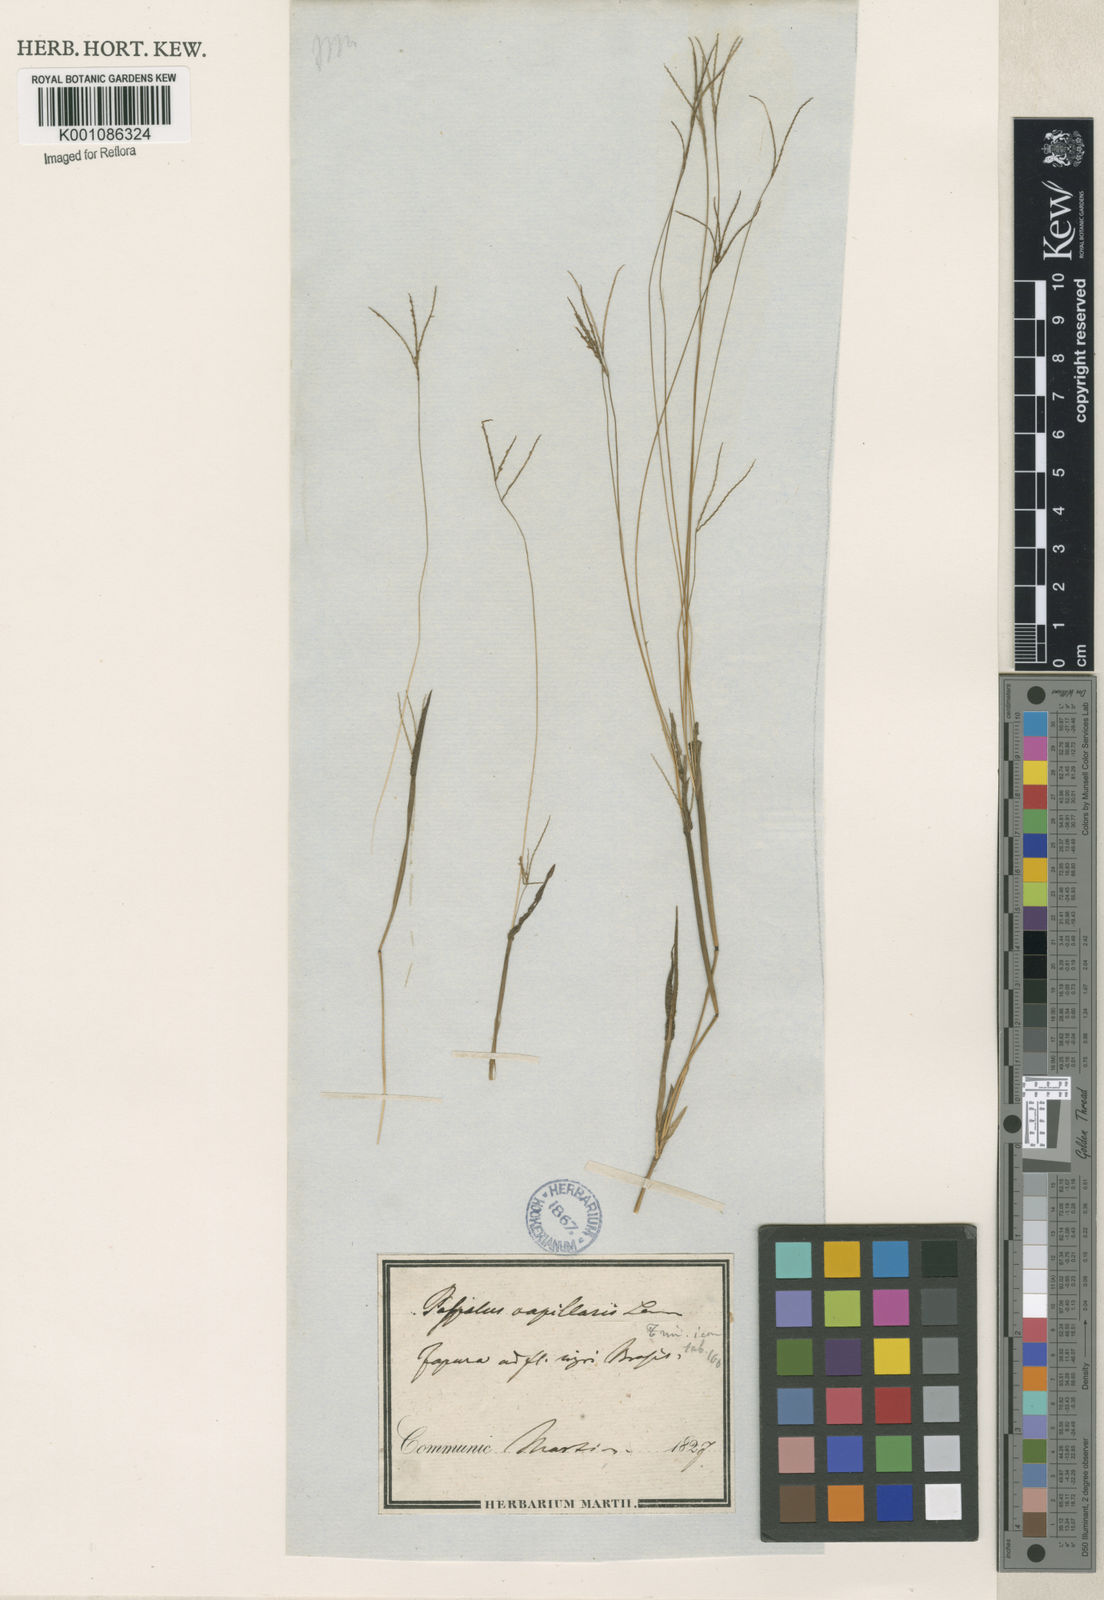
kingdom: Plantae
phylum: Tracheophyta
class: Liliopsida
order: Poales
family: Poaceae
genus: Axonopus
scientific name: Axonopus capillaris
